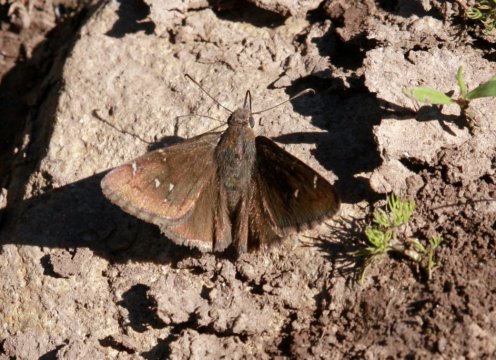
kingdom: Animalia
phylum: Arthropoda
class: Insecta
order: Lepidoptera
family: Hesperiidae
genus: Thorybes
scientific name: Thorybes mexicana
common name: Mexican Cloudywing
